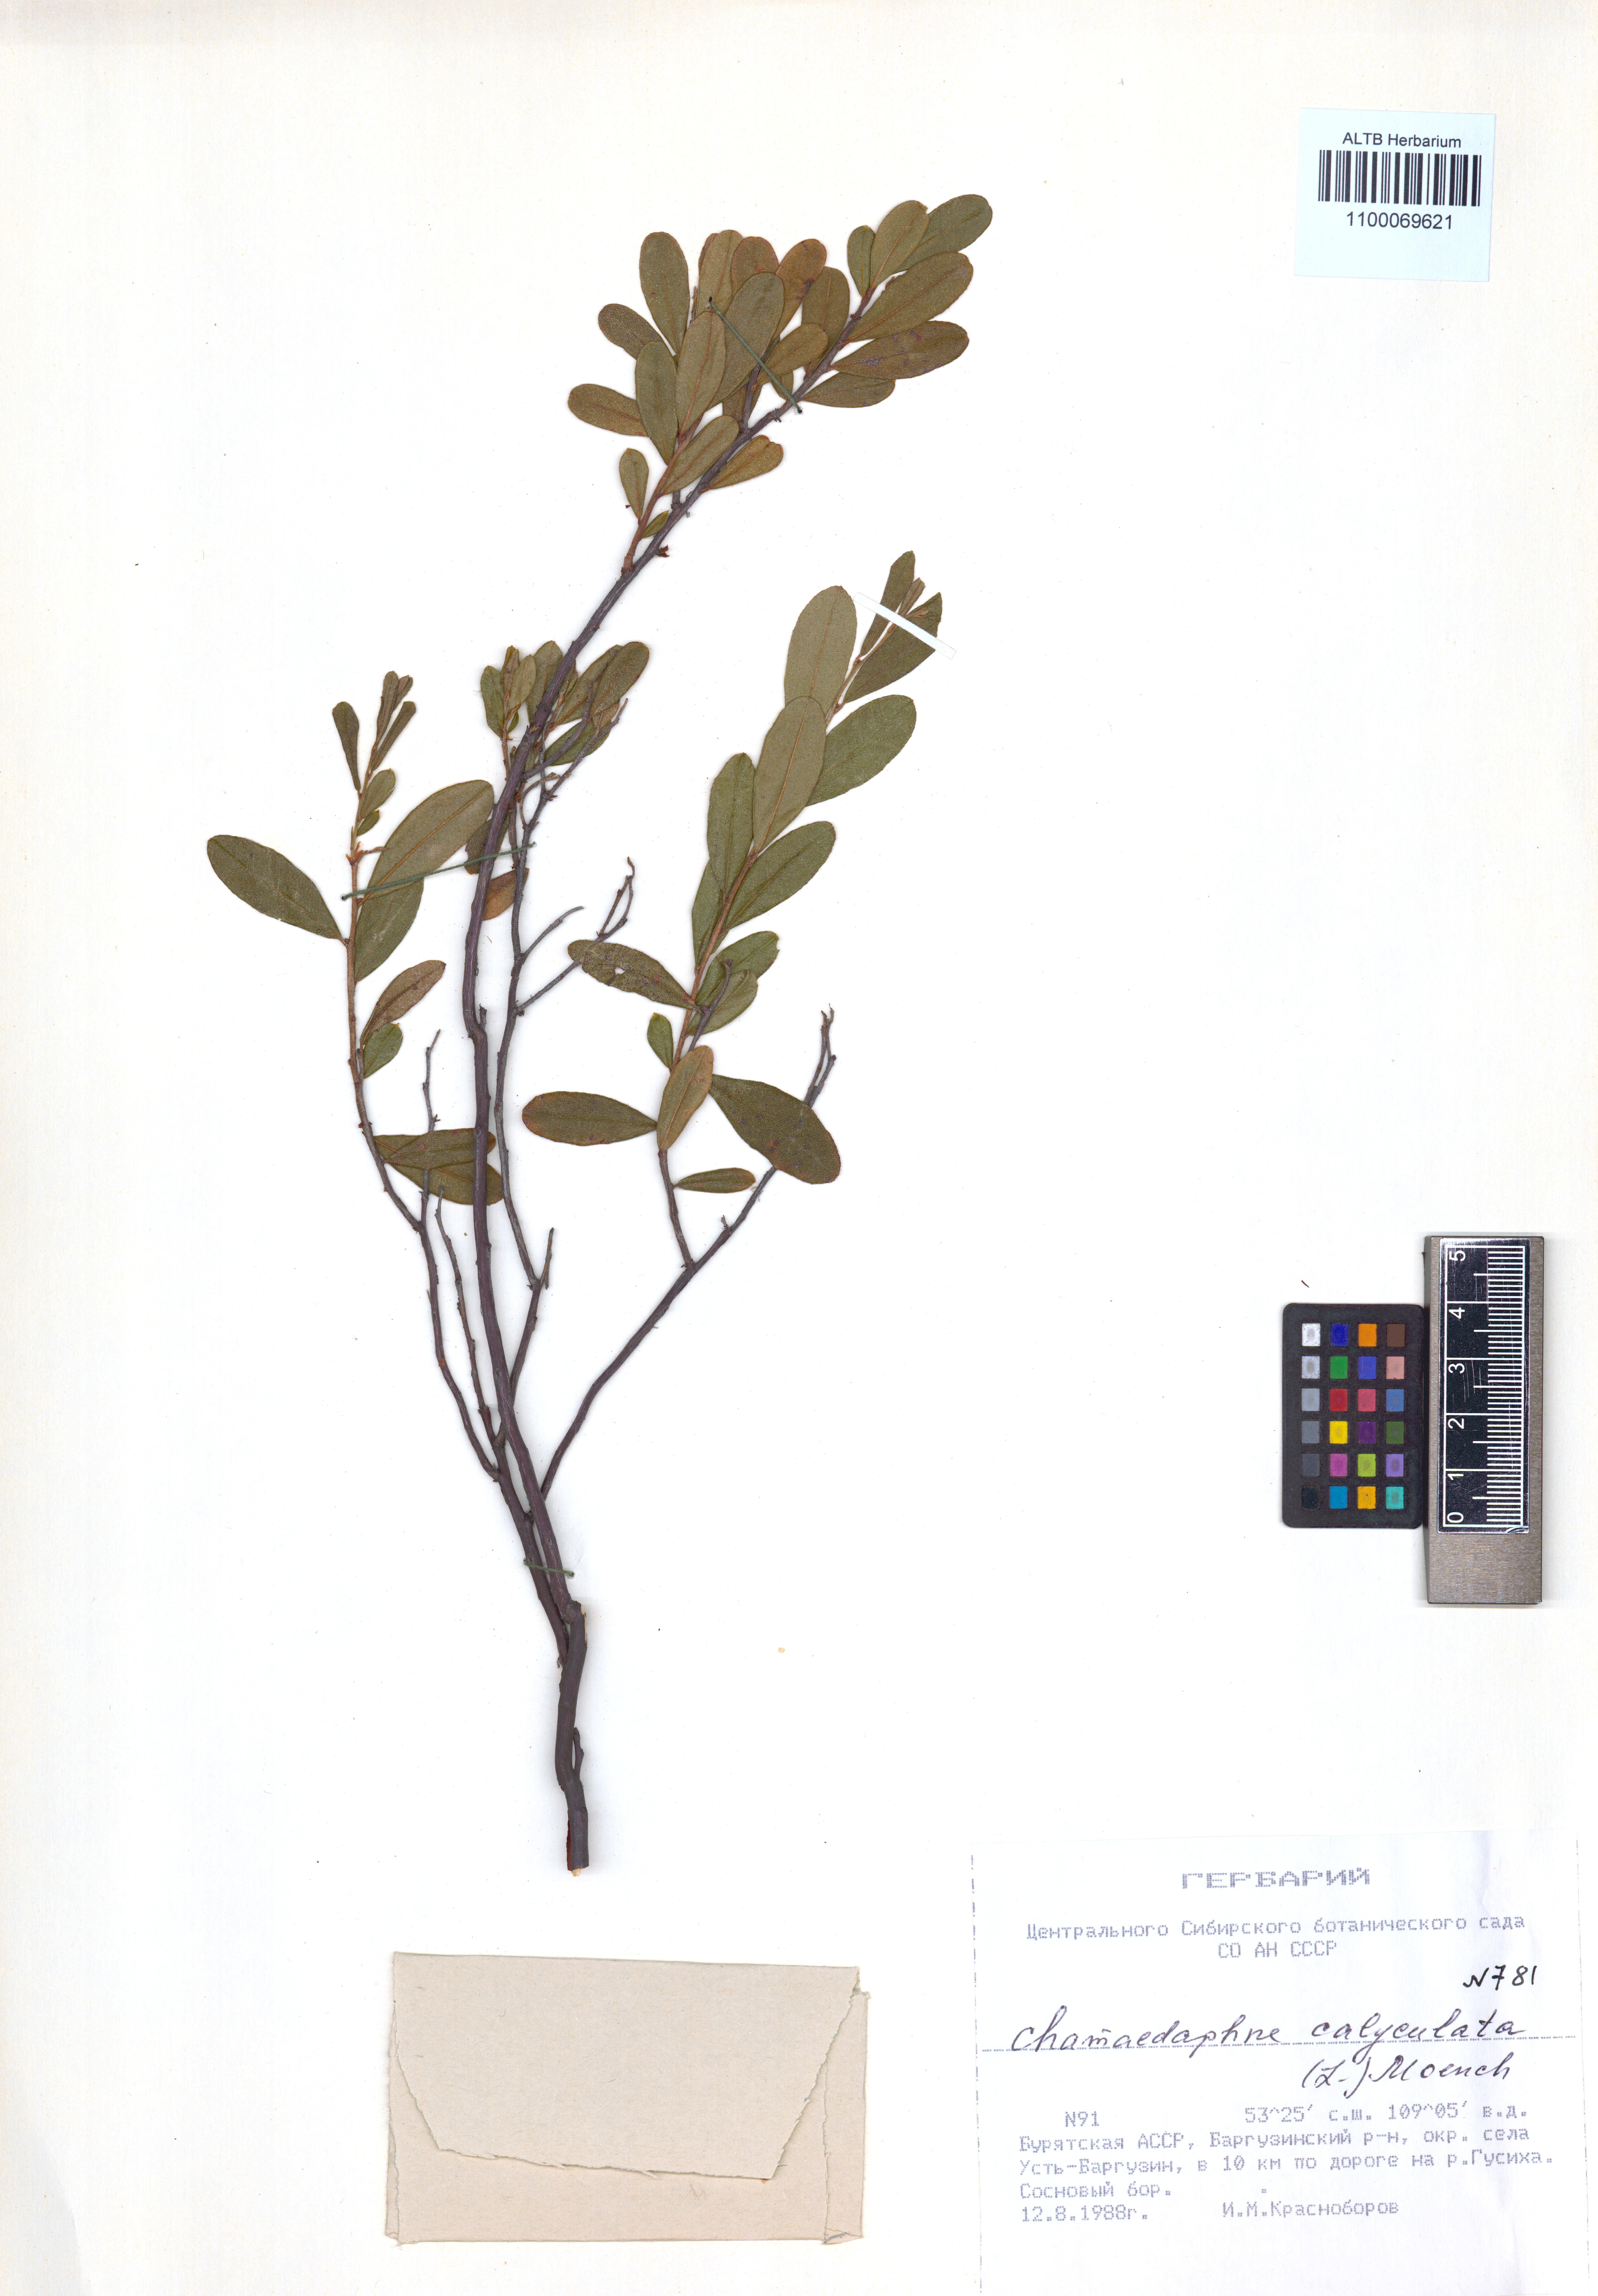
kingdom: Plantae
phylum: Tracheophyta
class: Magnoliopsida
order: Ericales
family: Ericaceae
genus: Chamaedaphne
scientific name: Chamaedaphne calyculata
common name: Leatherleaf
